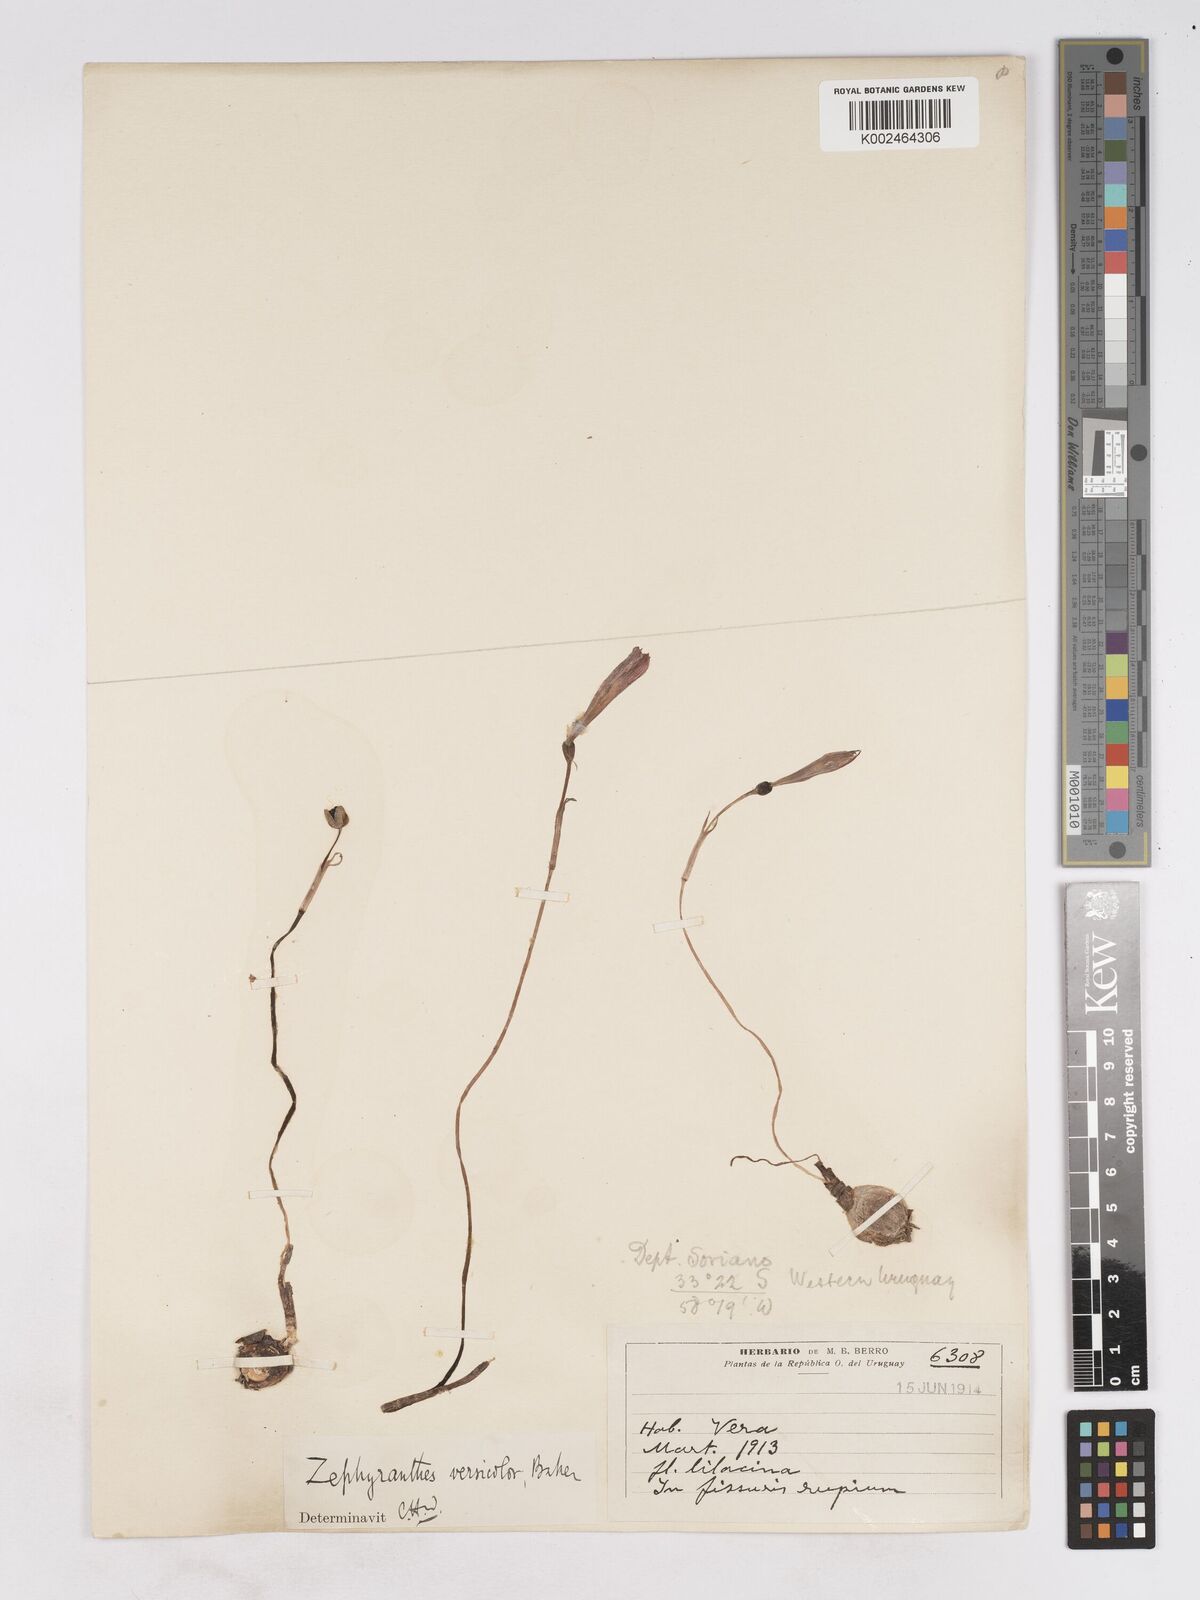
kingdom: Plantae
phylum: Tracheophyta
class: Liliopsida
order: Asparagales
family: Amaryllidaceae
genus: Zephyranthes
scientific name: Zephyranthes versicolor
